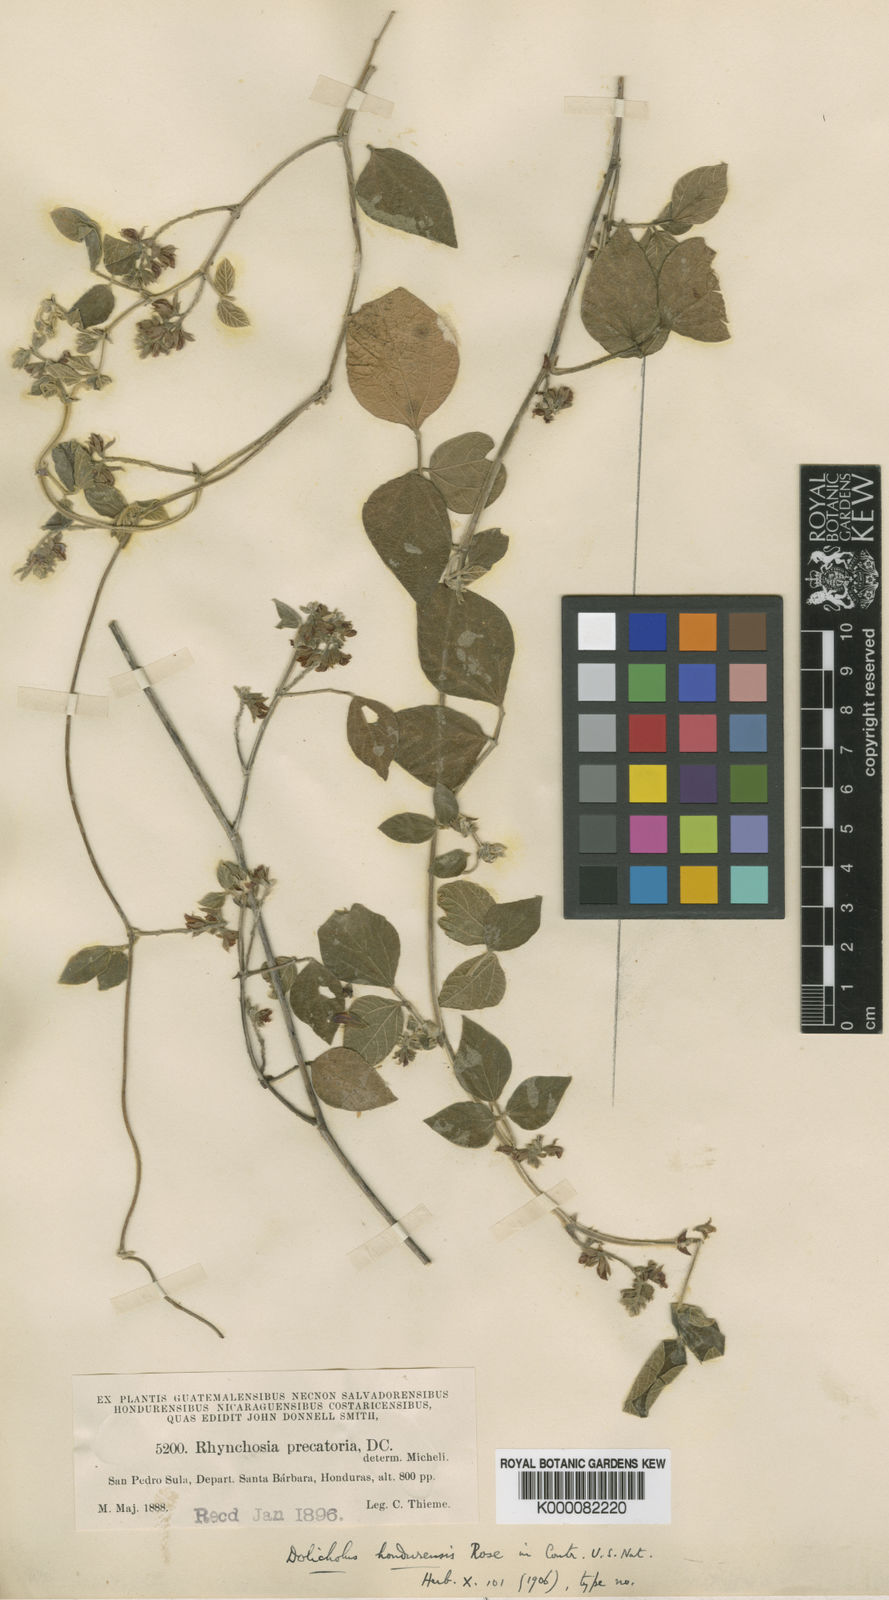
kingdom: Plantae
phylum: Tracheophyta
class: Magnoliopsida
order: Fabales
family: Fabaceae
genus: Rhynchosia
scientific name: Rhynchosia precatoria
